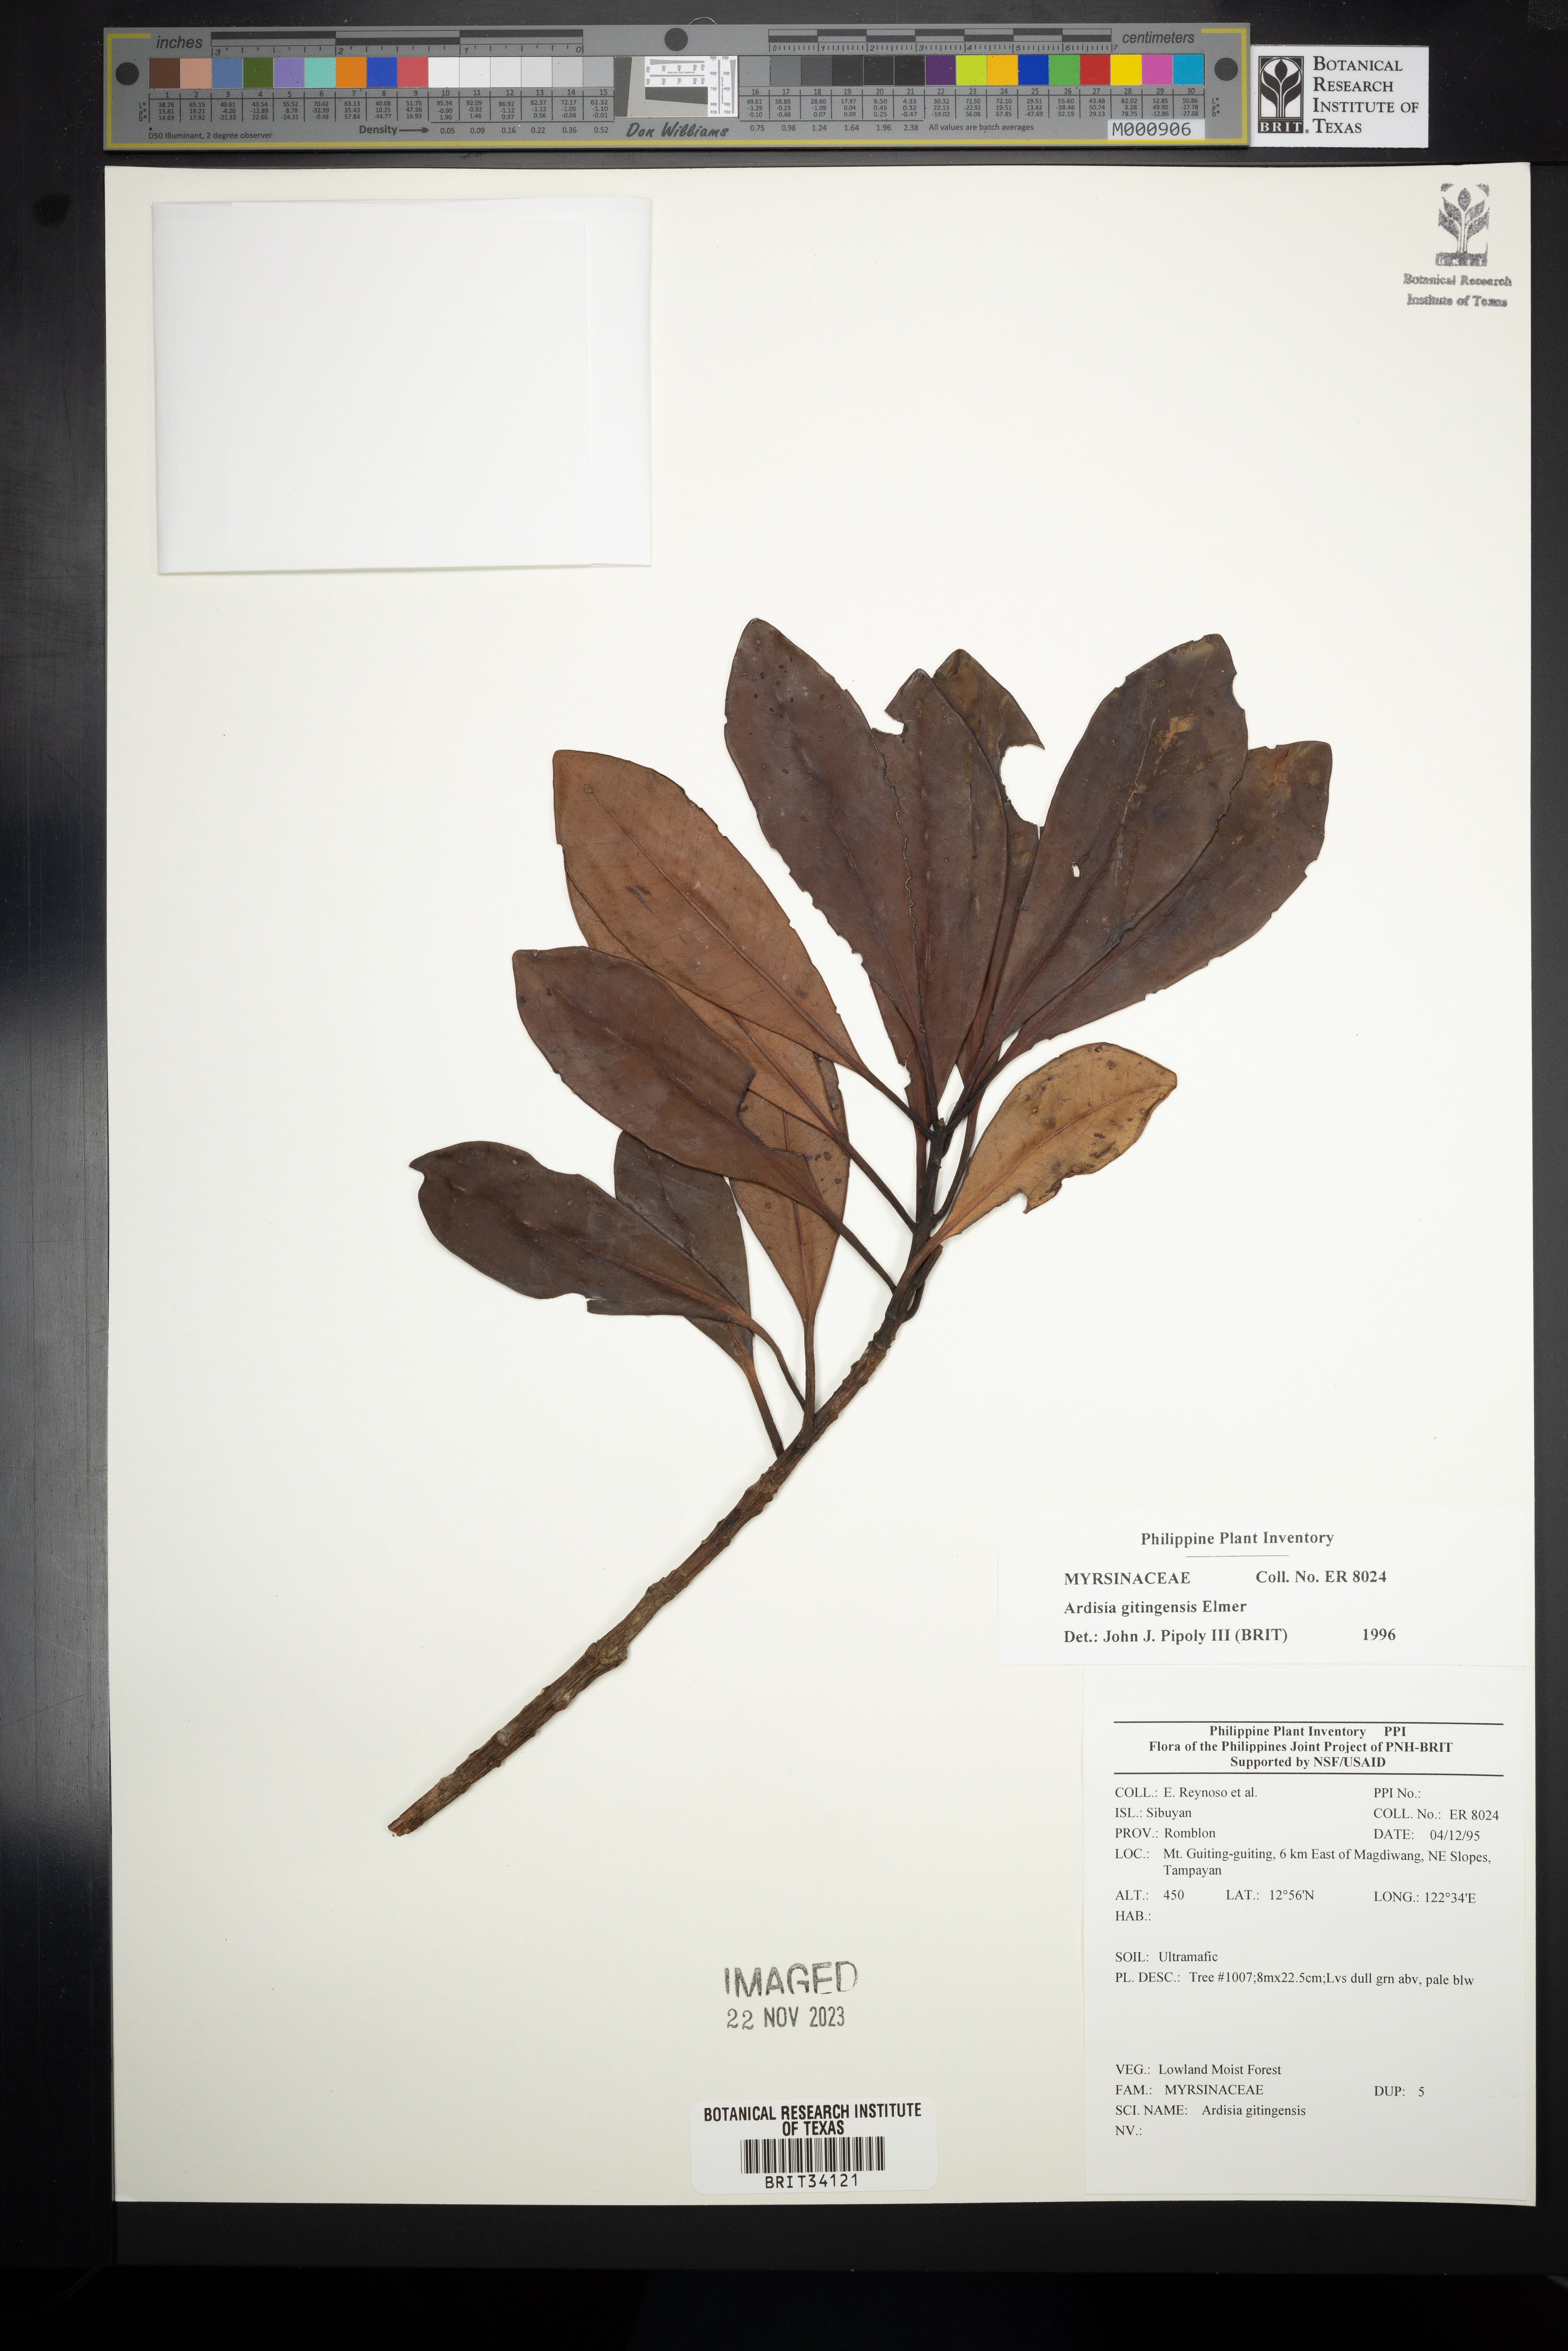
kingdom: Plantae
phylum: Tracheophyta
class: Magnoliopsida
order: Ericales
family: Primulaceae
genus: Ardisia
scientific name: Ardisia darlingii
